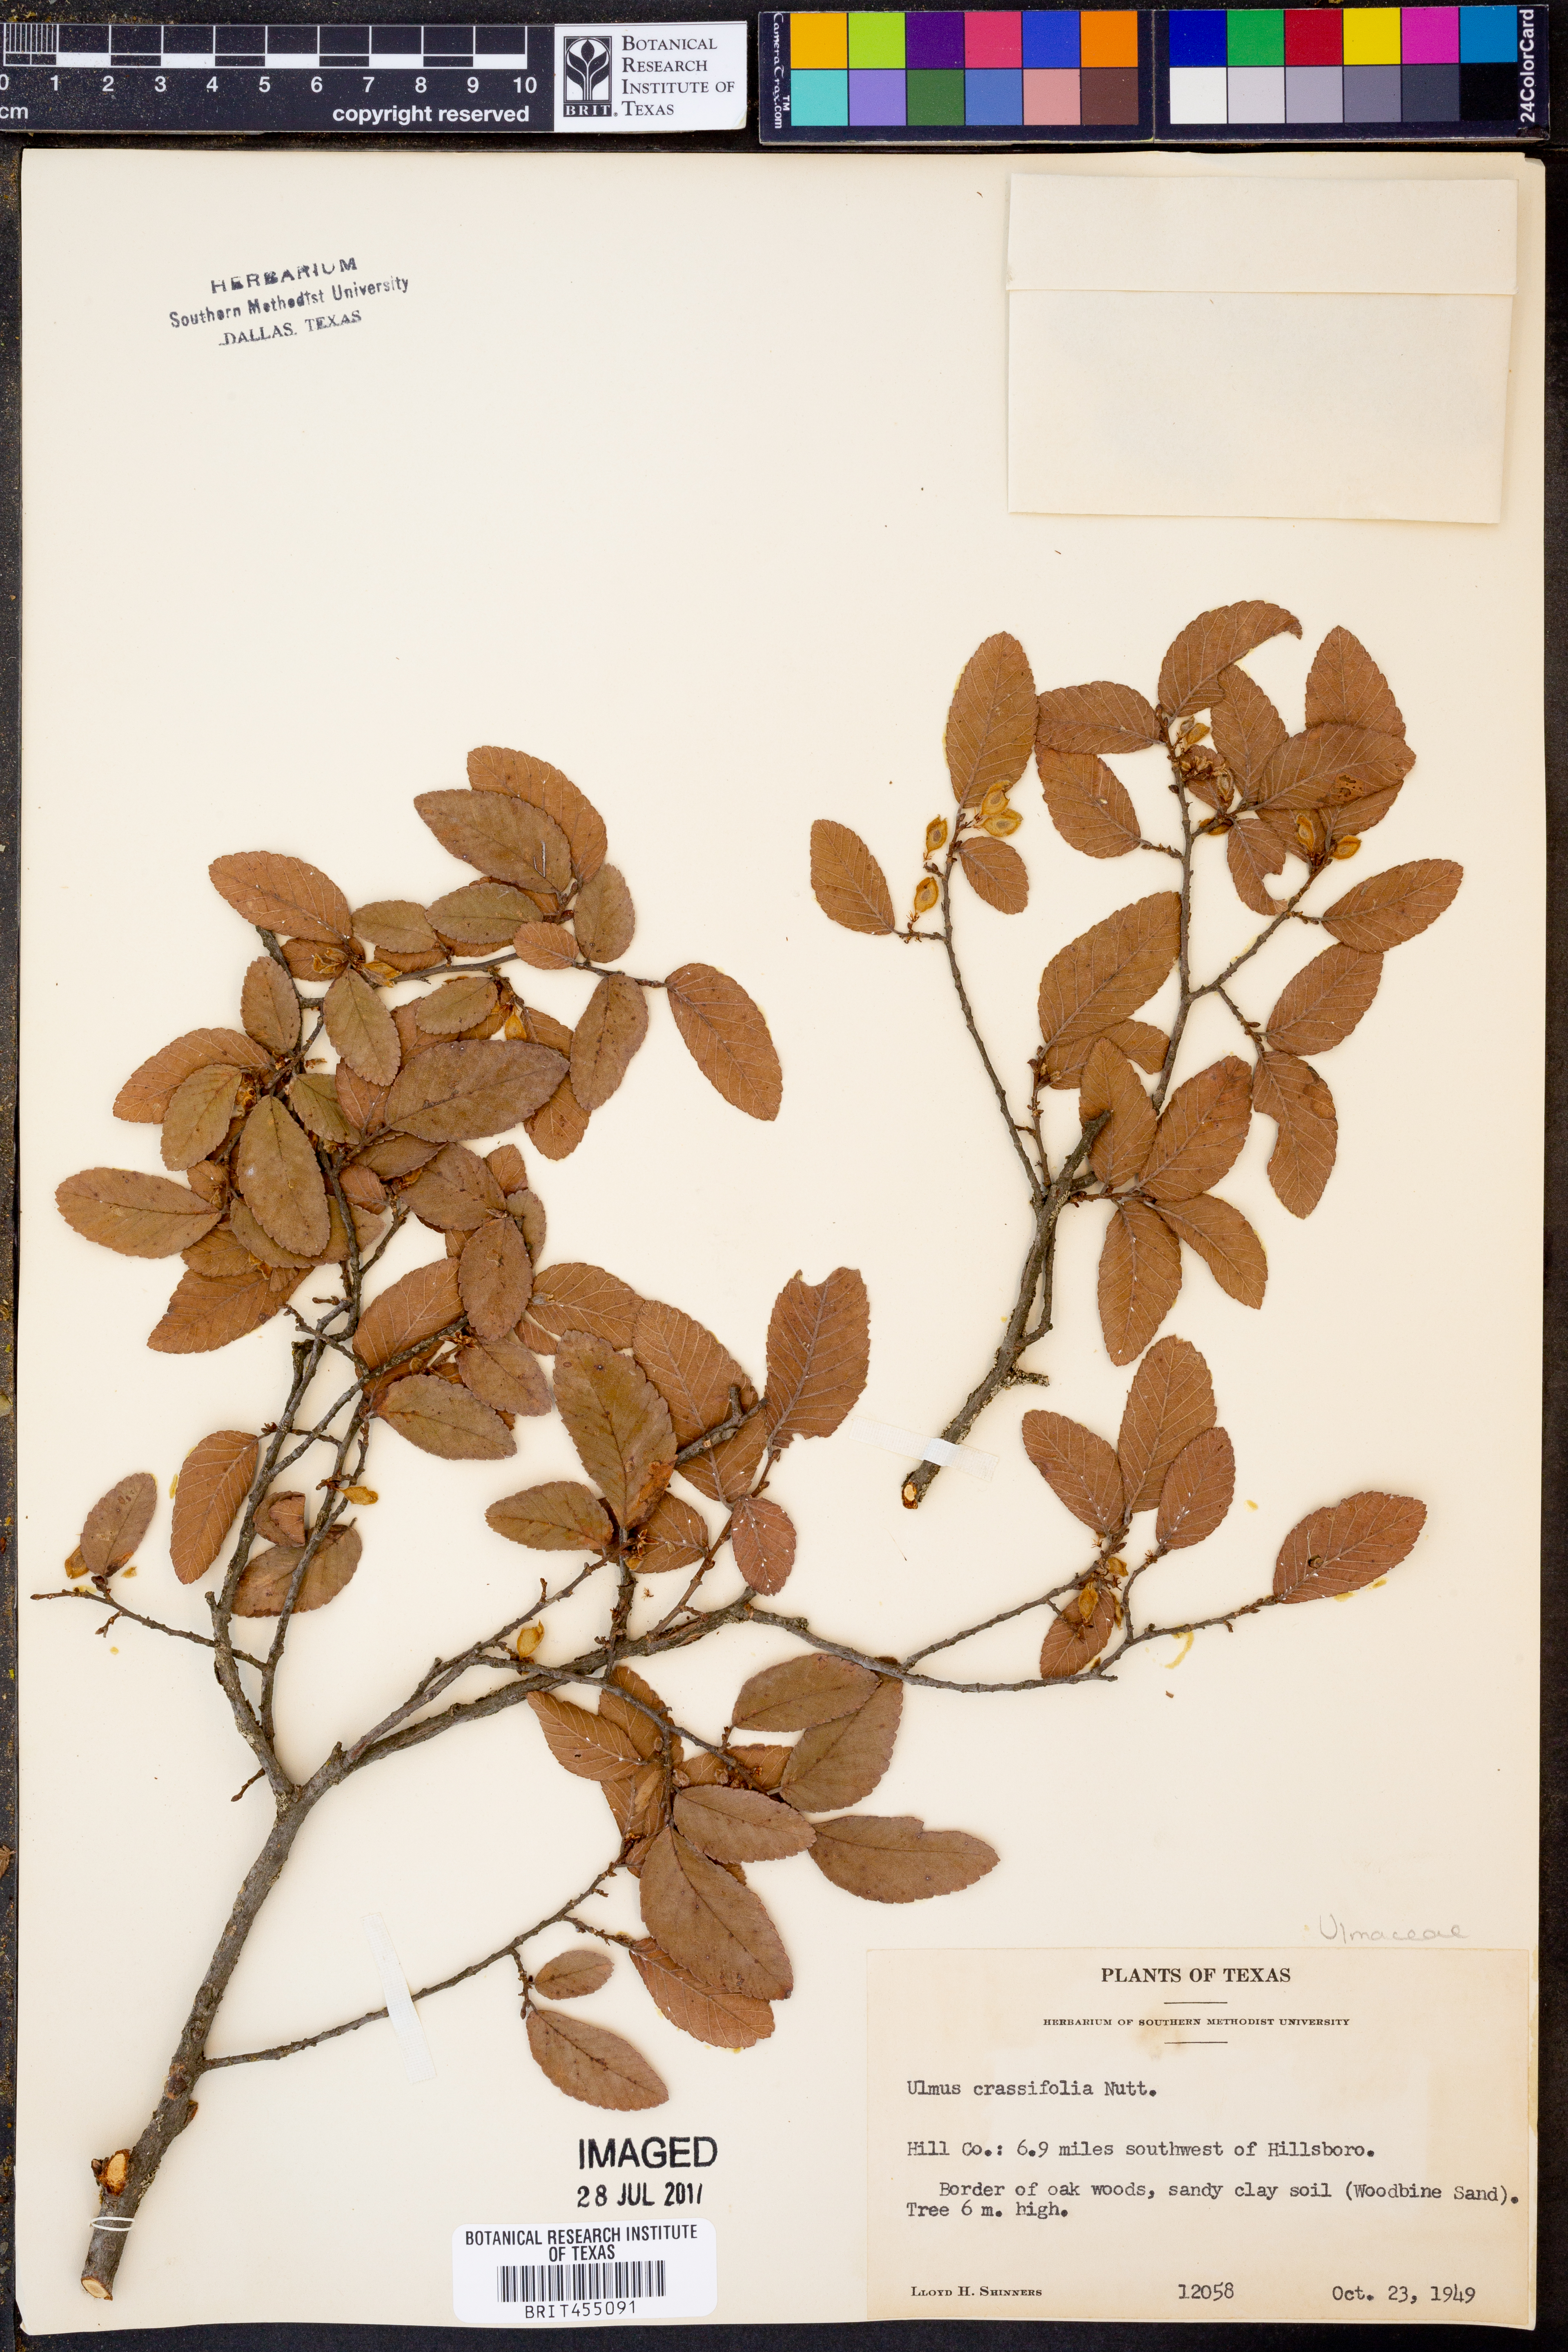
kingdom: Plantae
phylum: Tracheophyta
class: Magnoliopsida
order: Rosales
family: Ulmaceae
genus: Ulmus
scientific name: Ulmus crassifolia
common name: Basket elm
